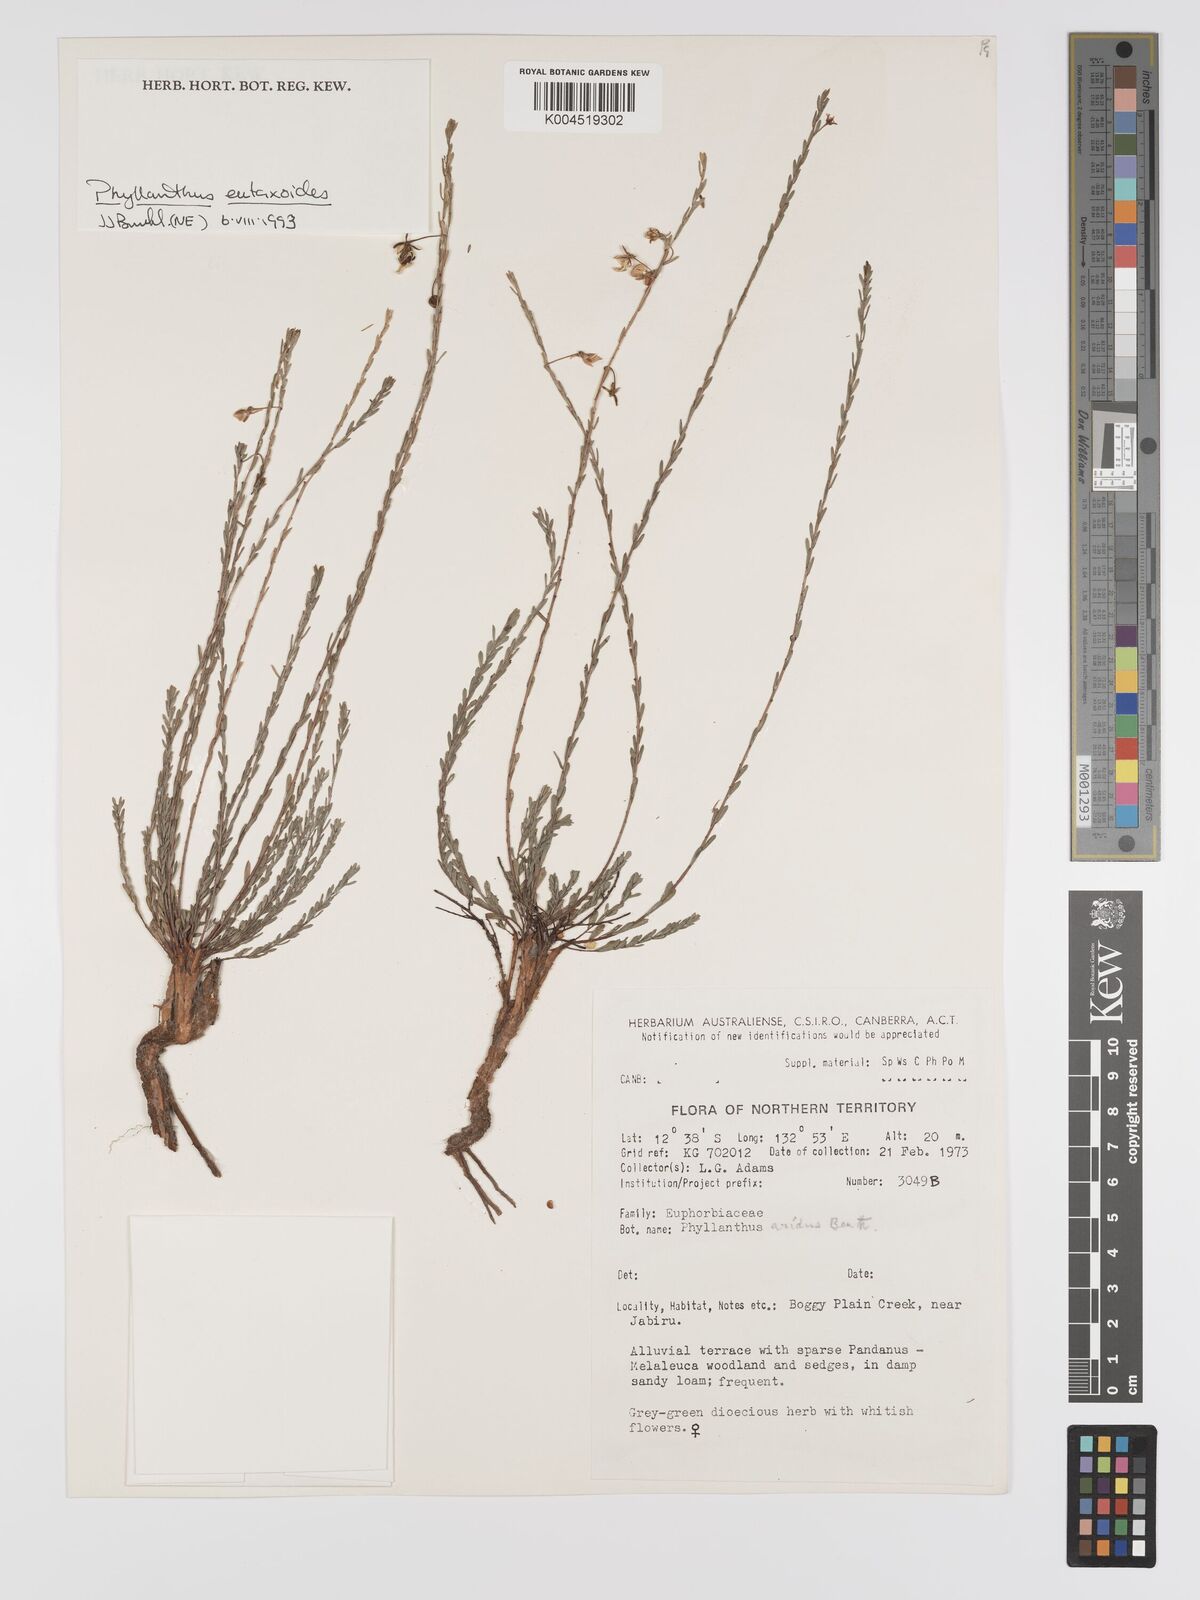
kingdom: Plantae
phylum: Tracheophyta
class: Magnoliopsida
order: Malpighiales
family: Phyllanthaceae
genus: Phyllanthus
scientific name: Phyllanthus eutaxioides
